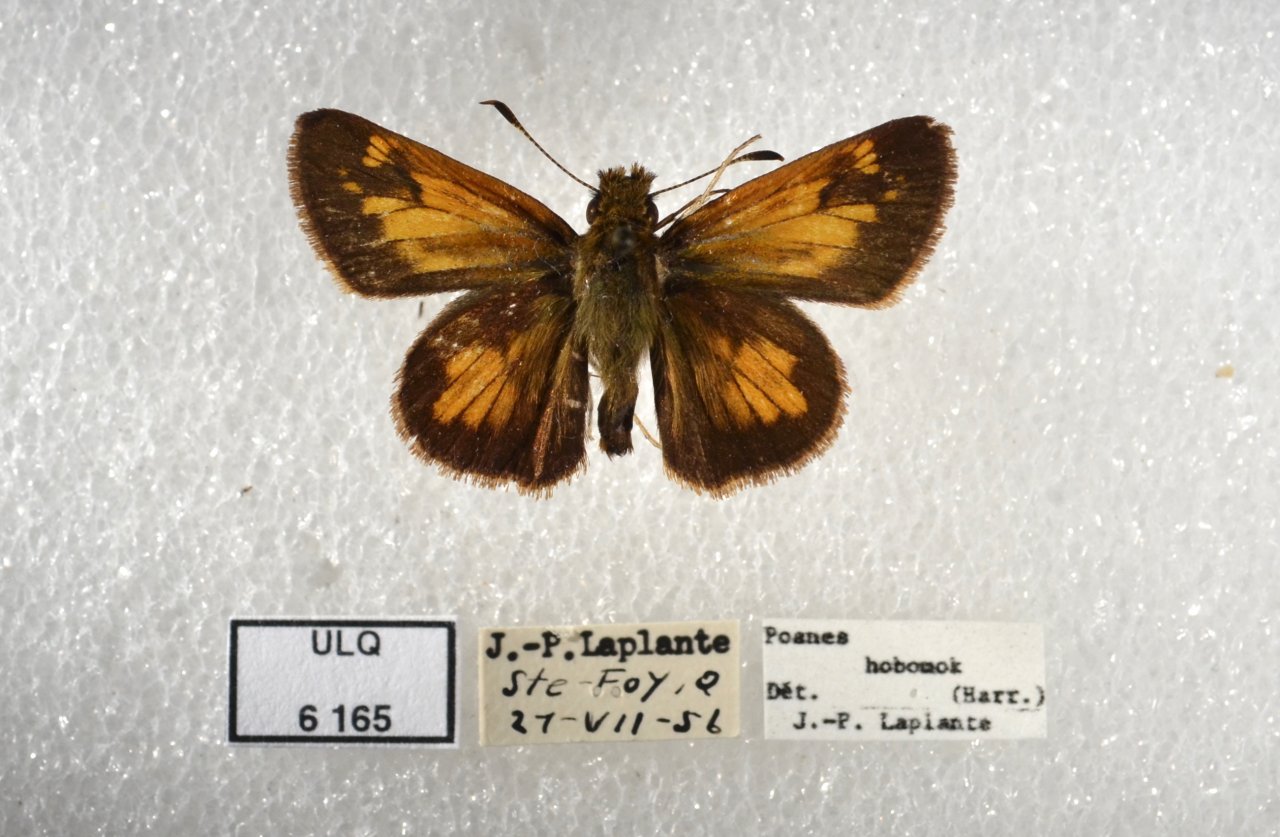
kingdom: Animalia
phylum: Arthropoda
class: Insecta
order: Lepidoptera
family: Hesperiidae
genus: Lon
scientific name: Lon hobomok
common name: Hobomok Skipper
